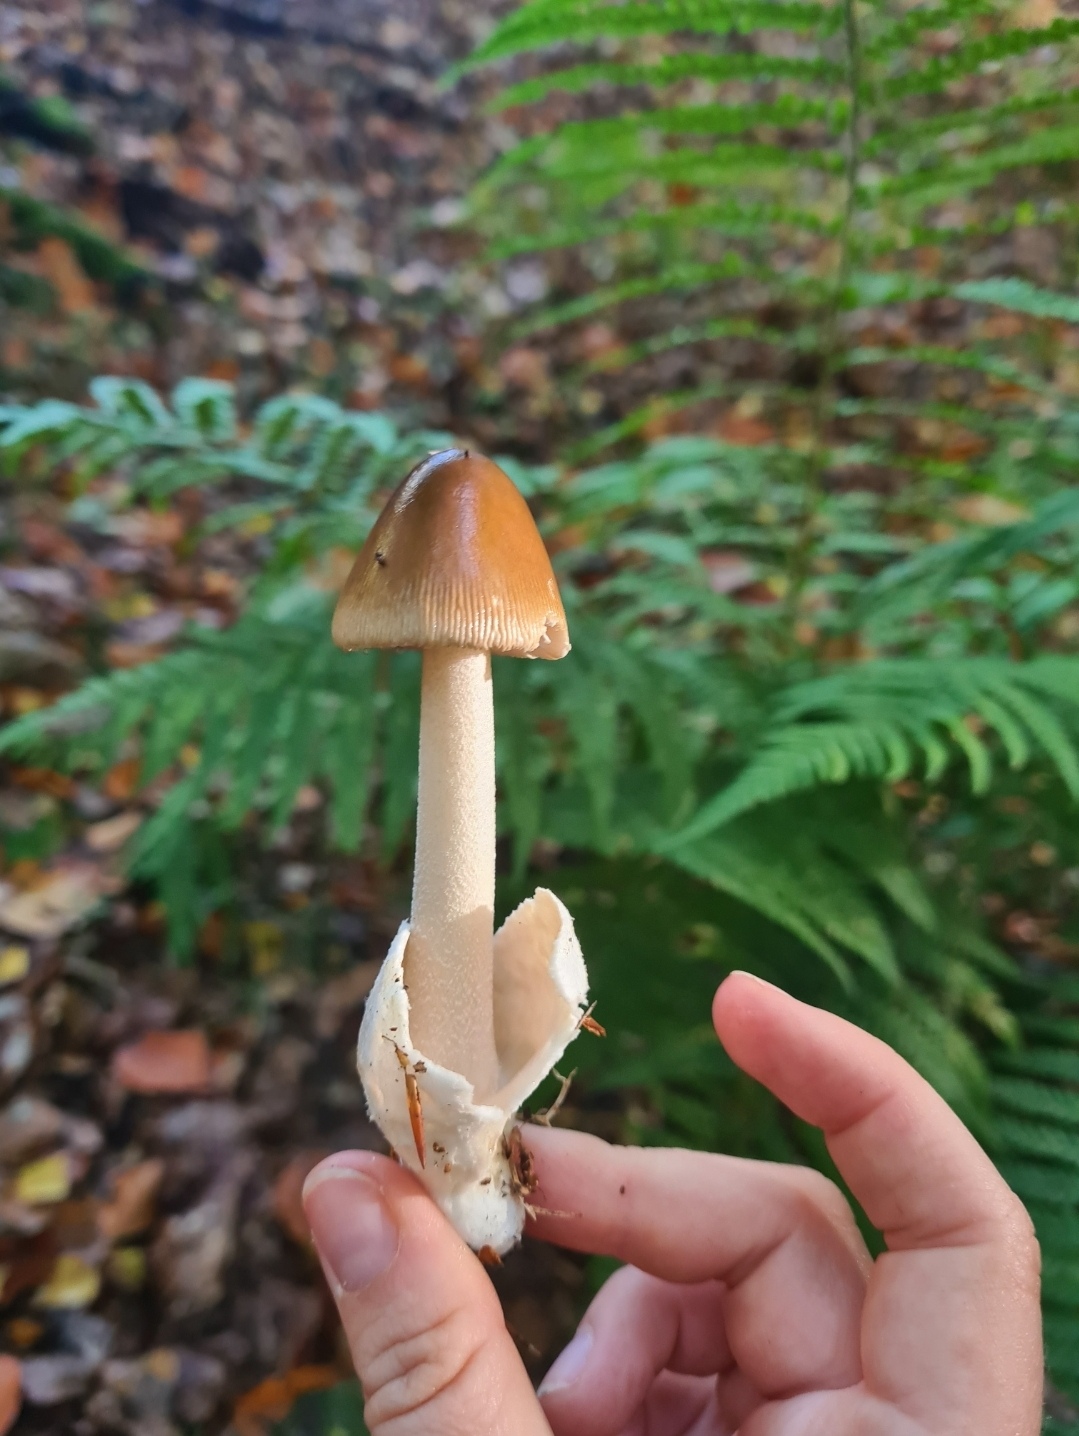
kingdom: Fungi
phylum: Basidiomycota
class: Agaricomycetes
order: Agaricales
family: Amanitaceae
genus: Amanita
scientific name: Amanita fulva
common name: brun kam-fluesvamp
